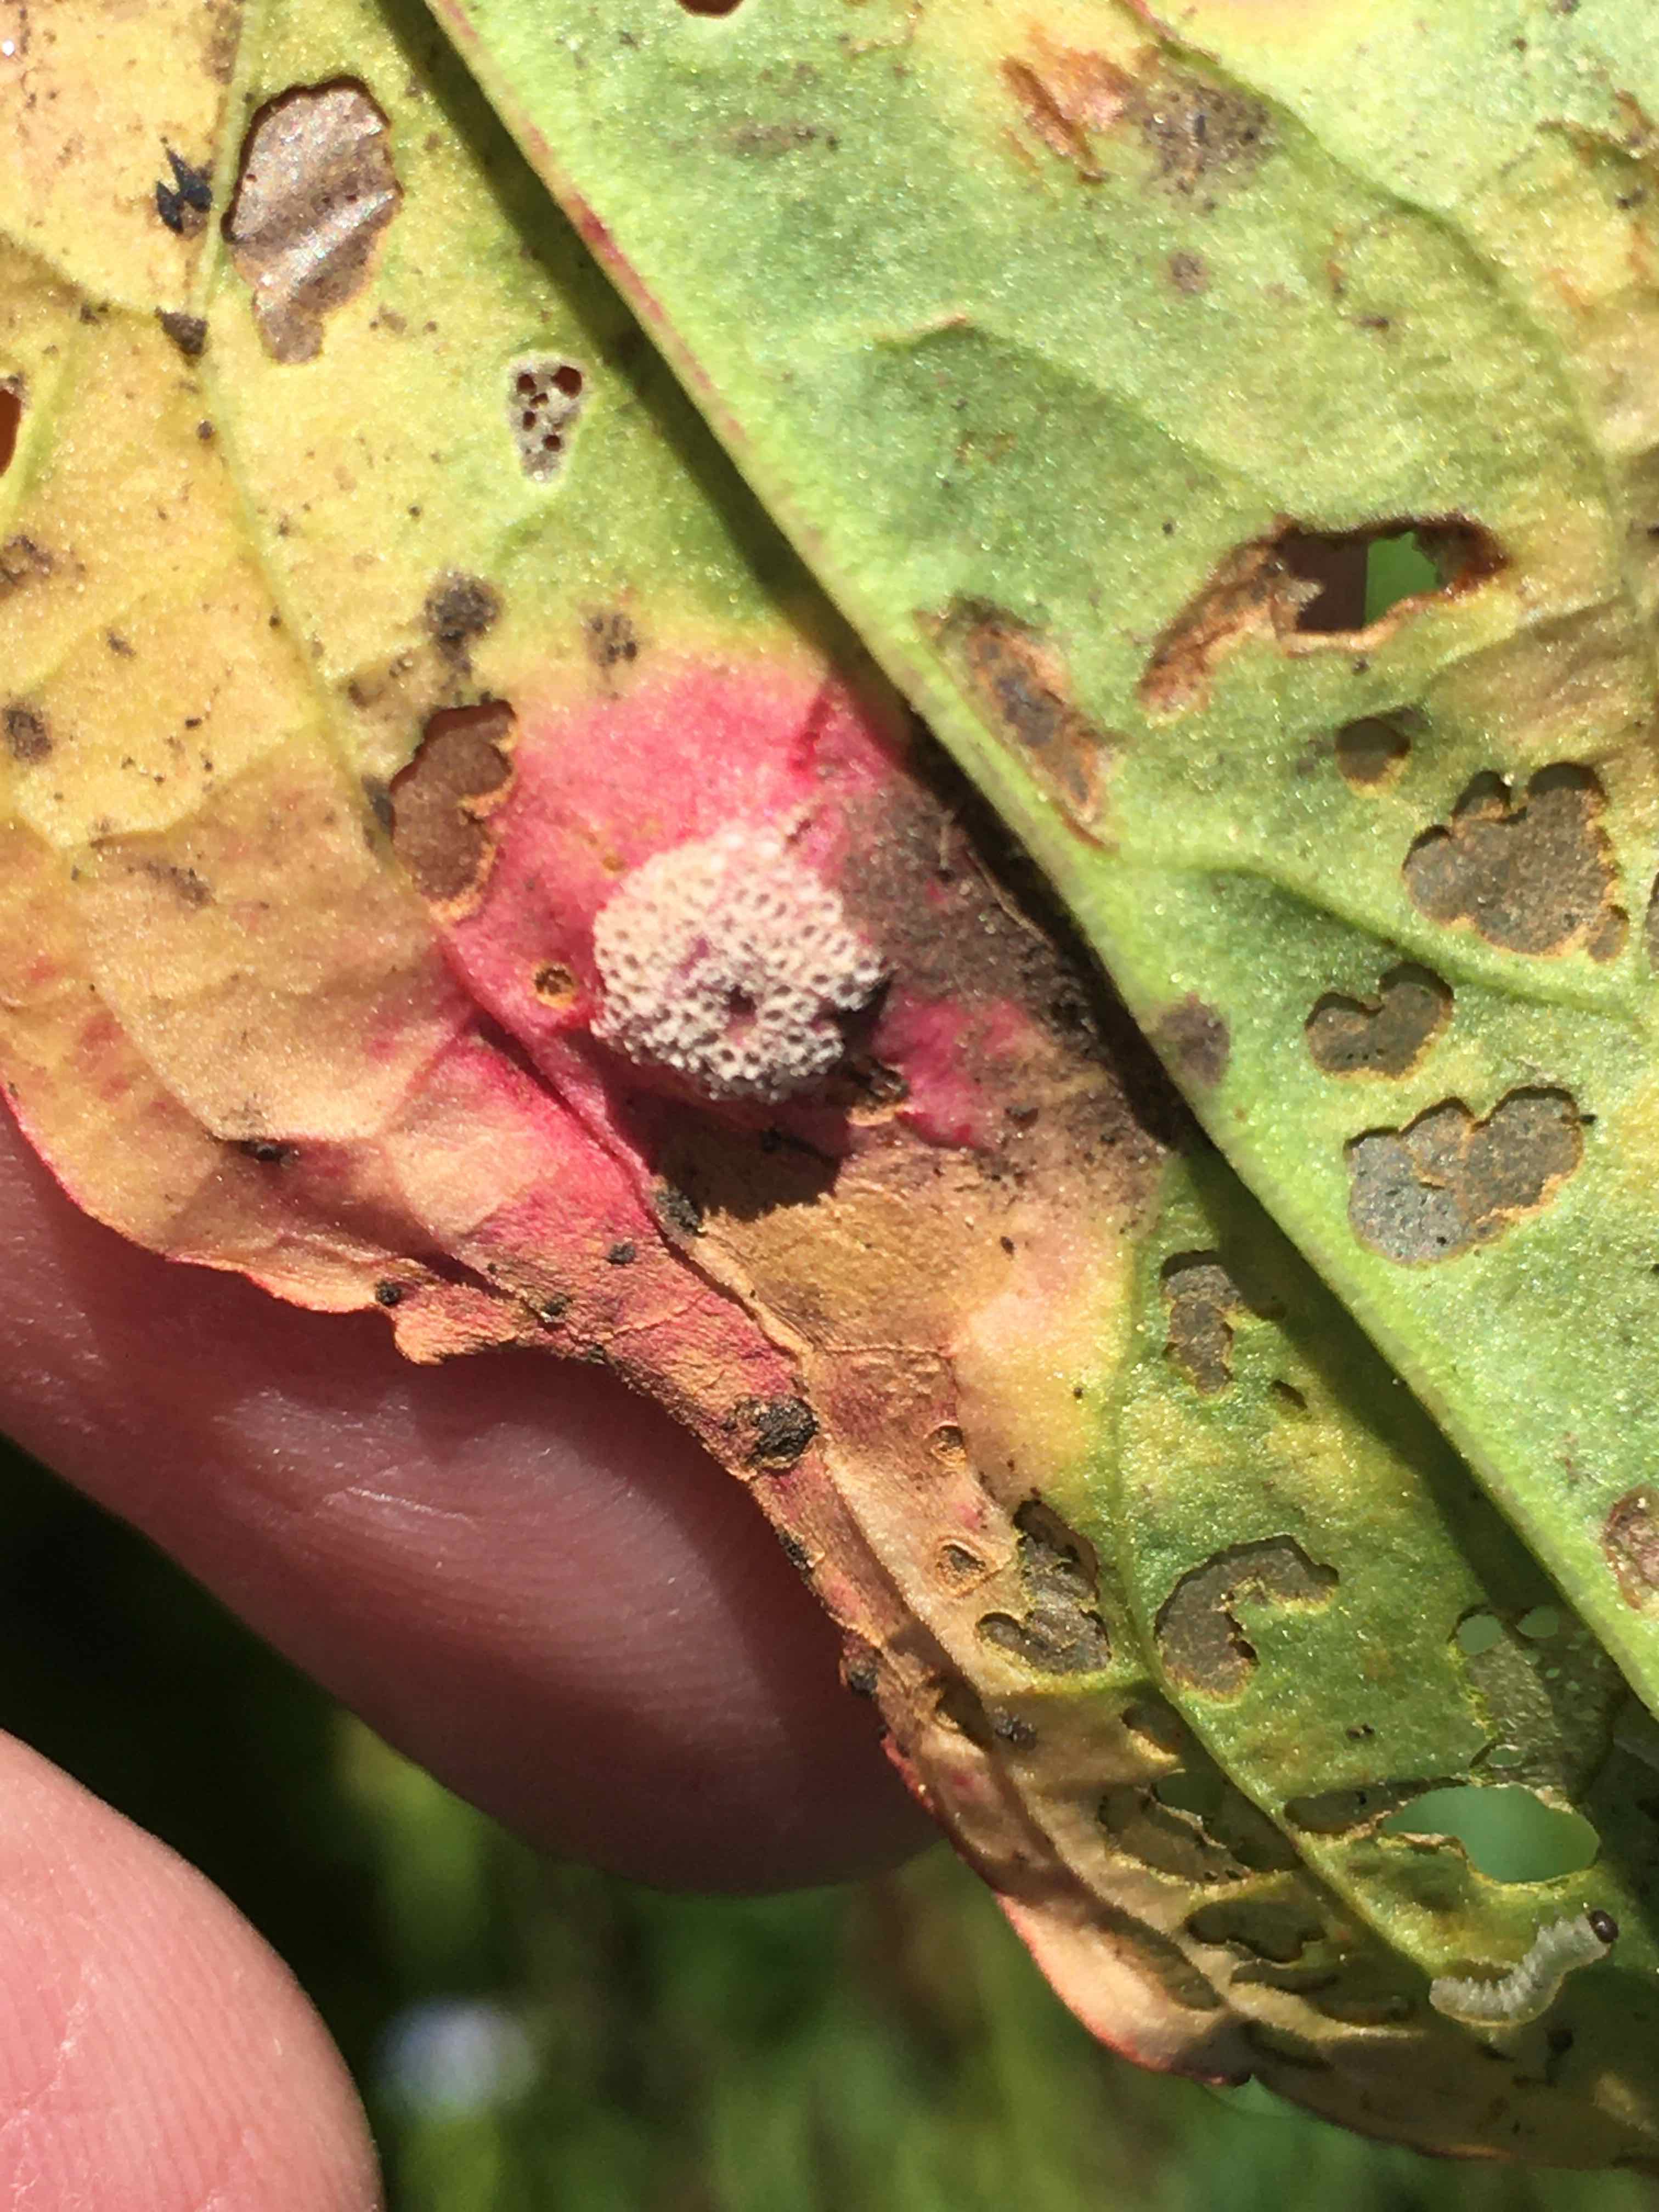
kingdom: Fungi
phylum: Basidiomycota
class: Pucciniomycetes
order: Pucciniales
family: Pucciniaceae
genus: Puccinia
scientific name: Puccinia phragmitis
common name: tagrør-tvecellerust
